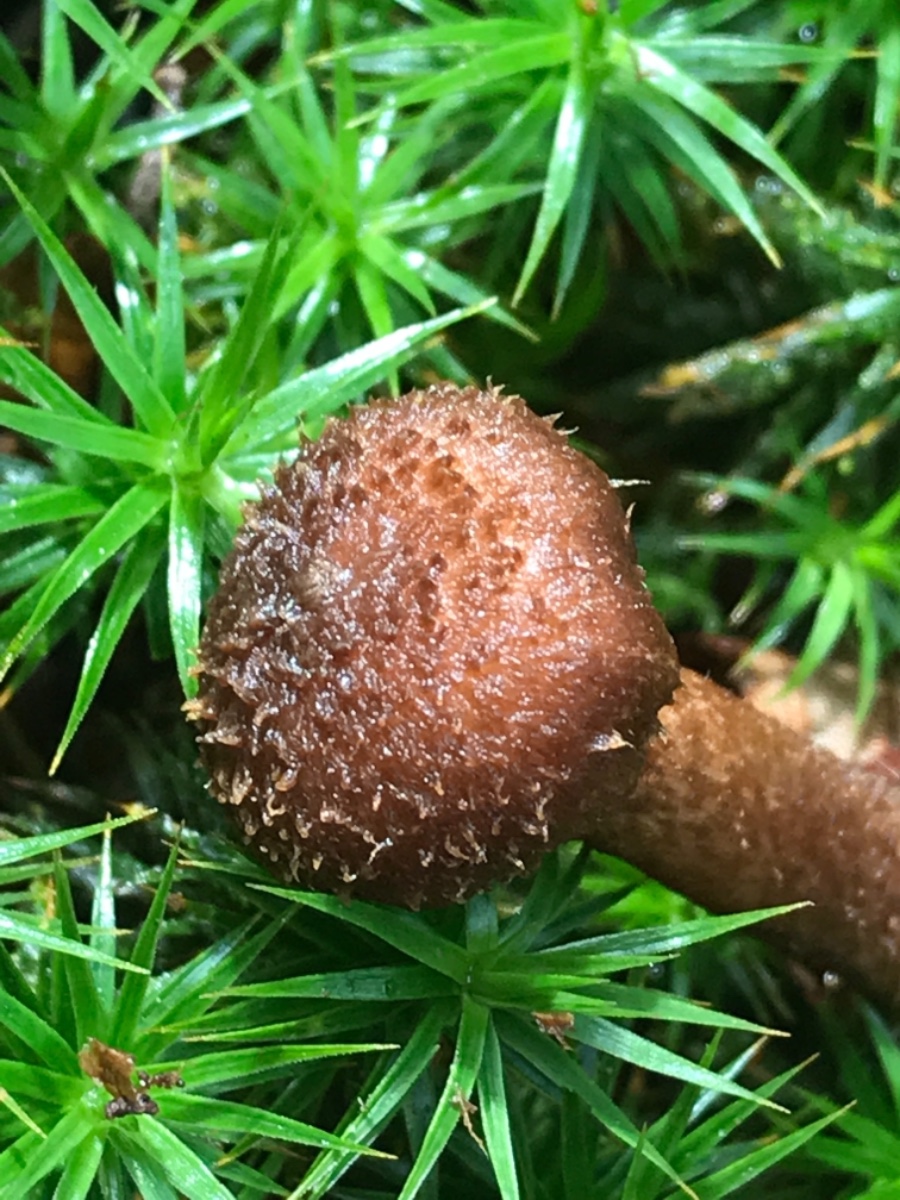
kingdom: Fungi
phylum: Basidiomycota
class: Agaricomycetes
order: Agaricales
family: Inocybaceae
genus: Inocybe
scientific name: Inocybe
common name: trævlhat
